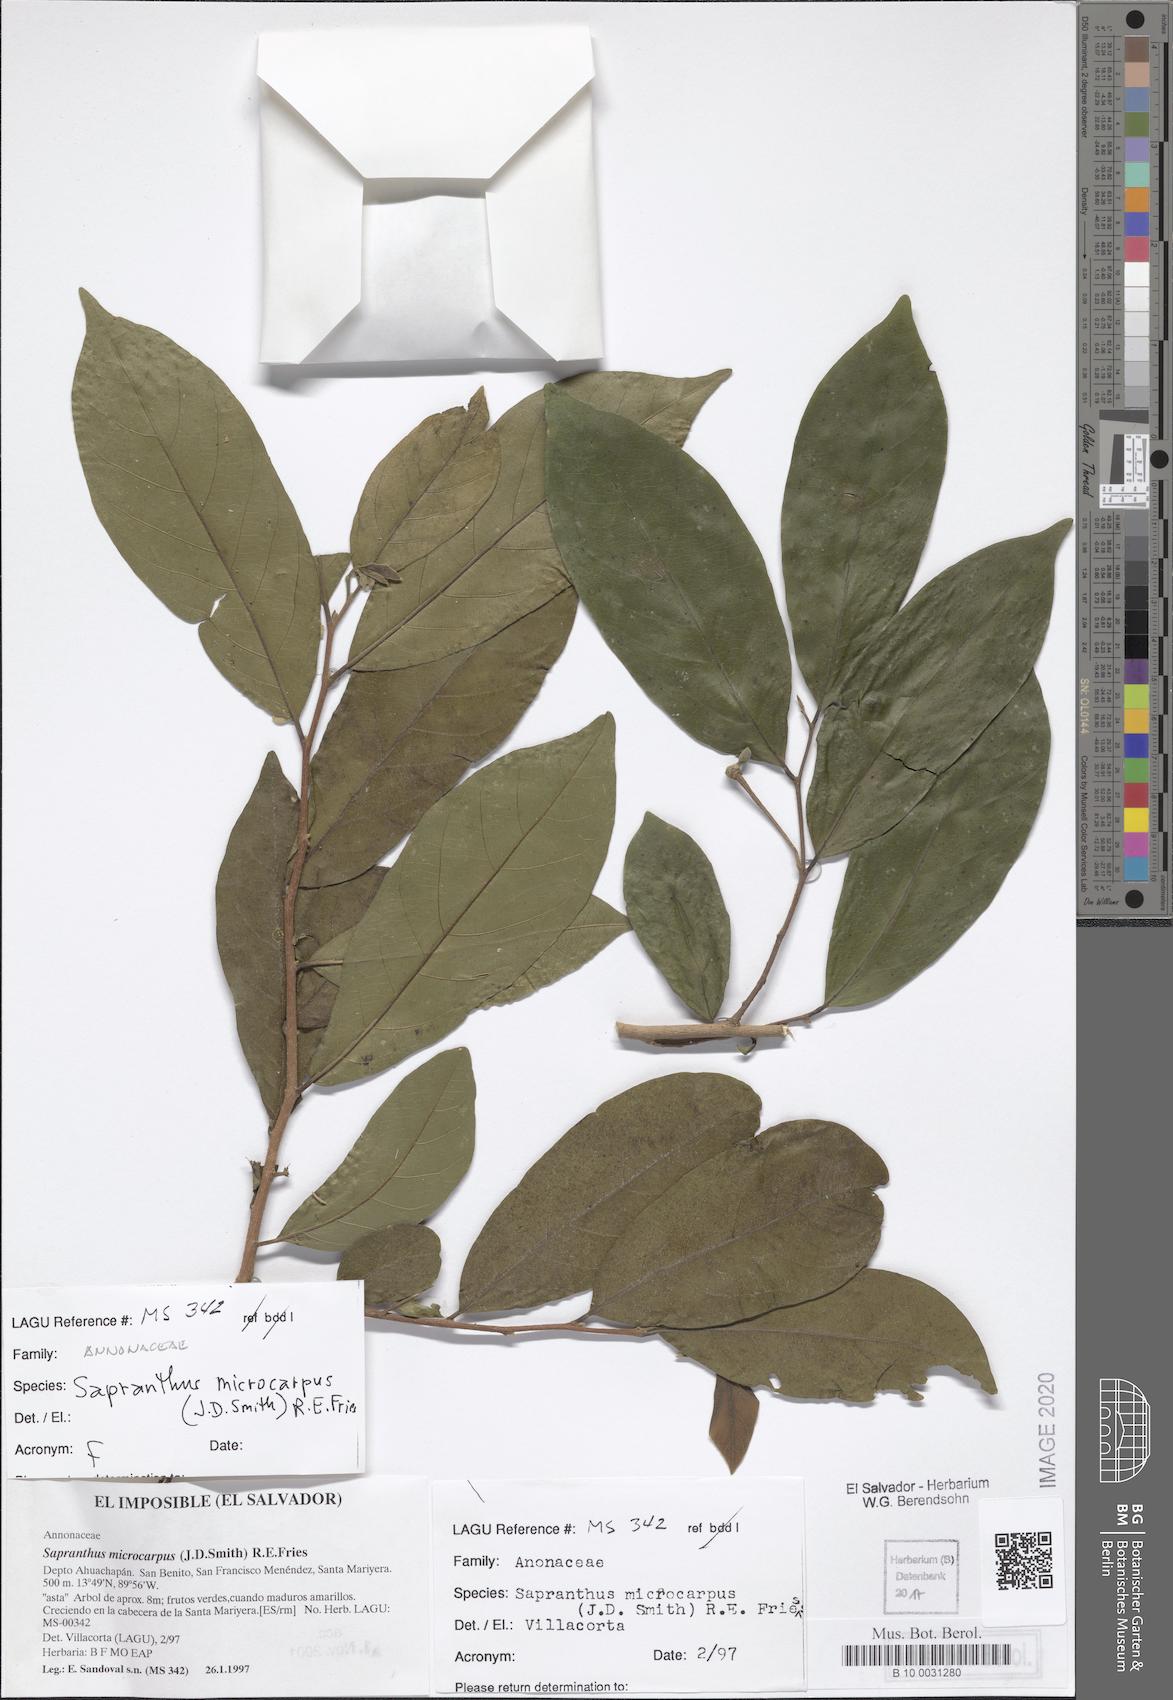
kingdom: Plantae
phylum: Tracheophyta
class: Magnoliopsida
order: Magnoliales
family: Annonaceae
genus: Sapranthus
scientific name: Sapranthus microcarpus
